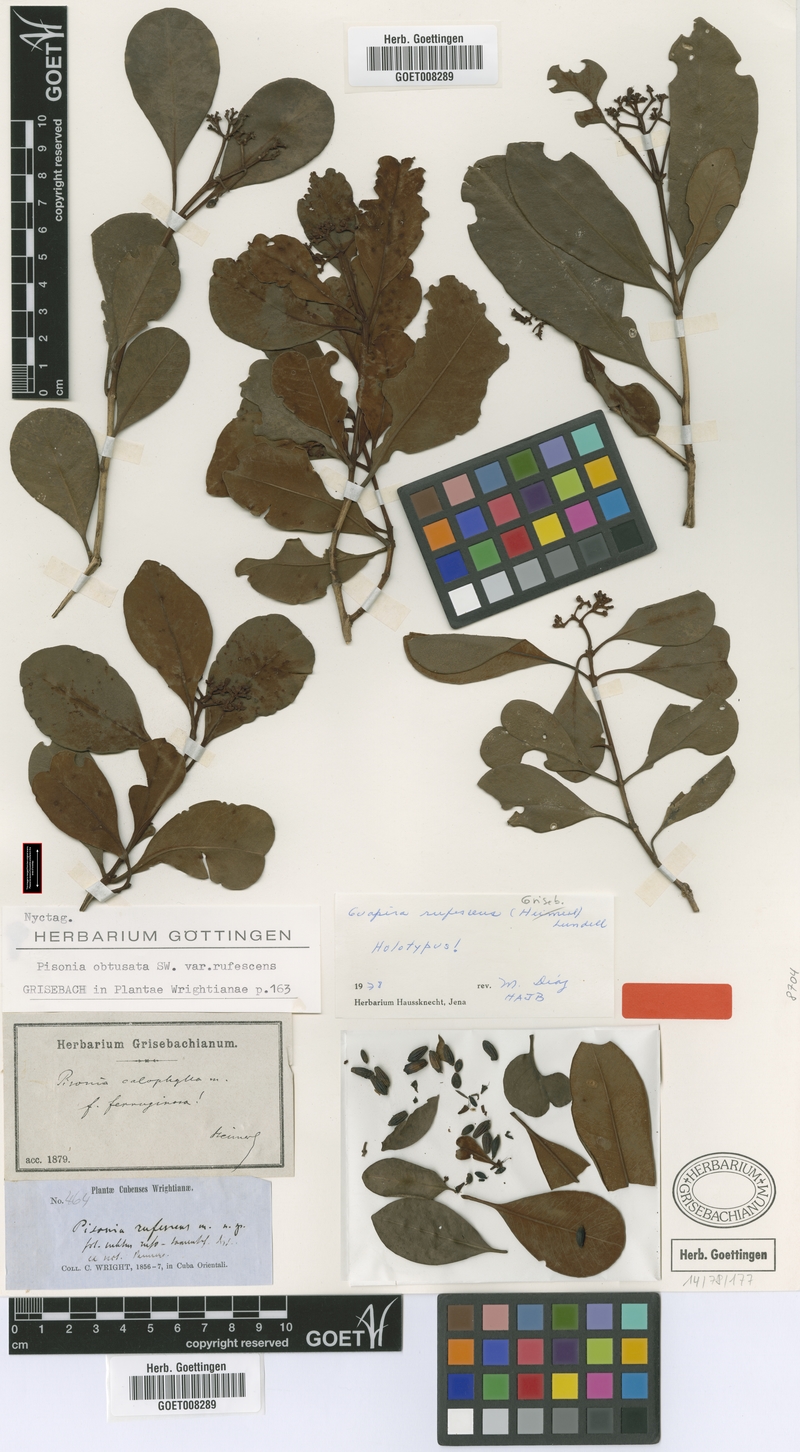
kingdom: Plantae
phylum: Tracheophyta
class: Magnoliopsida
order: Caryophyllales
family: Nyctaginaceae
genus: Guapira
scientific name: Guapira rufescens
